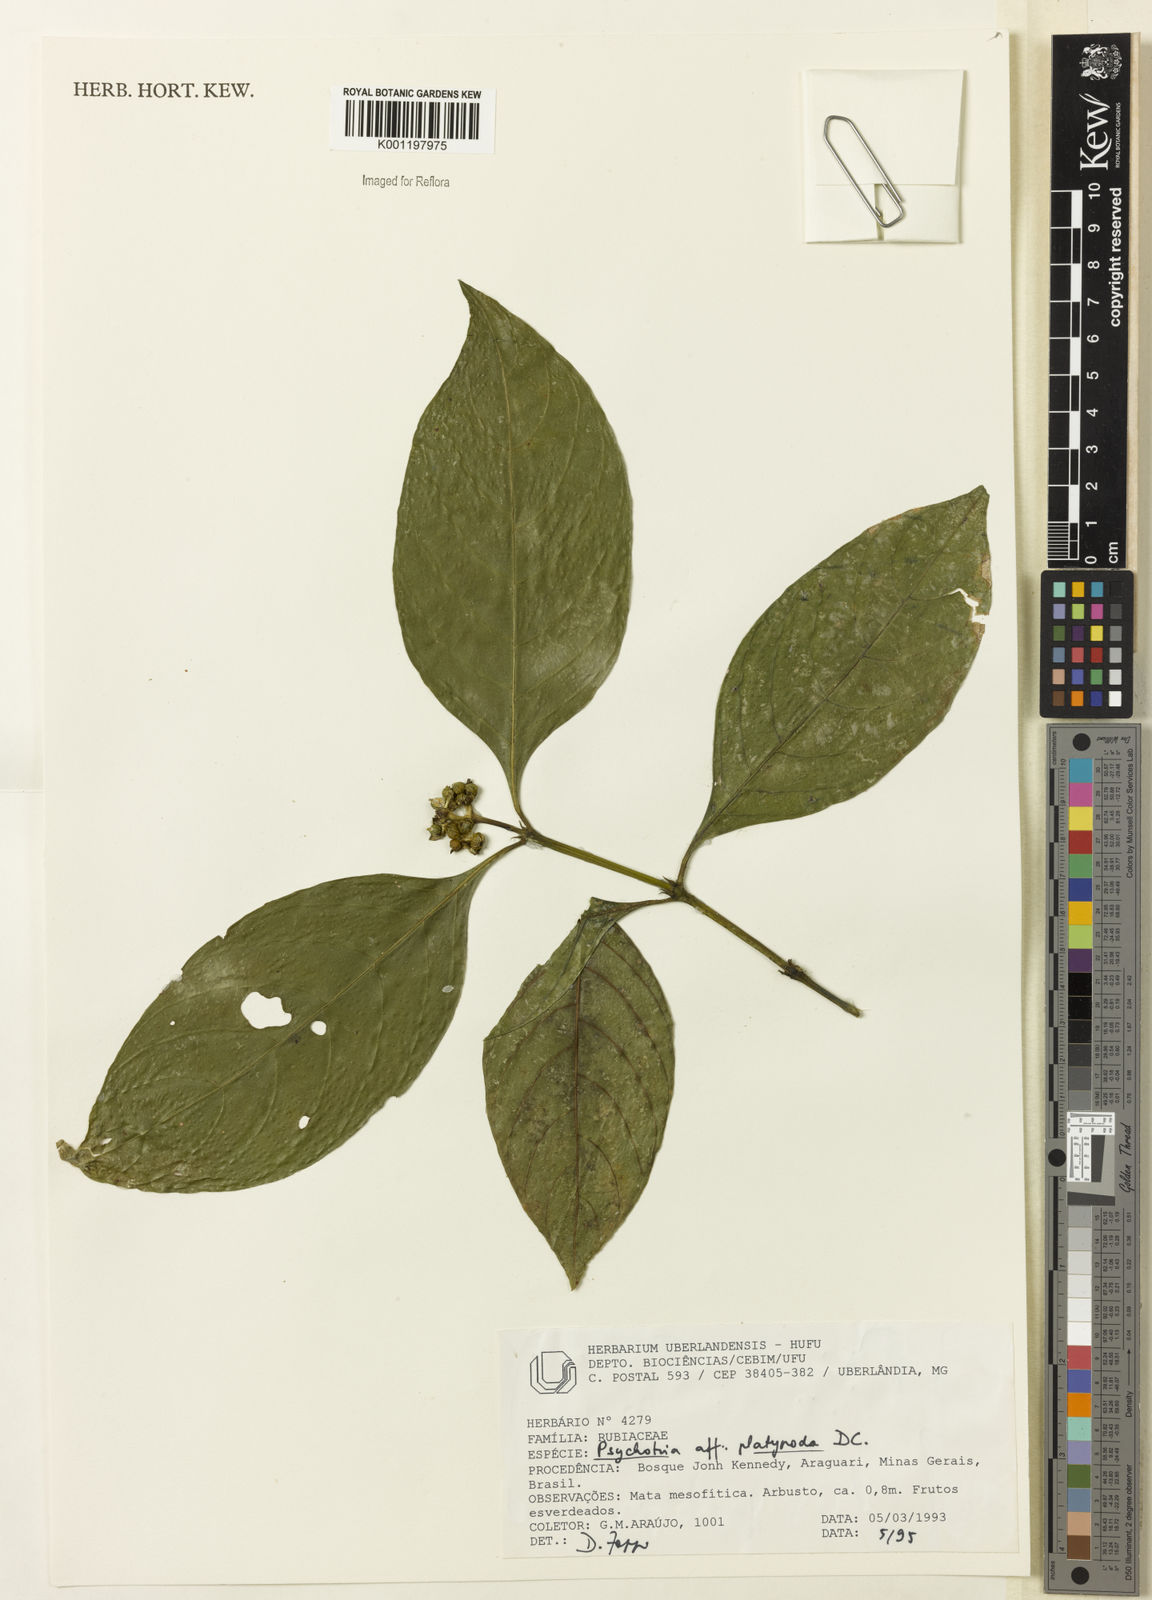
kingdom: Plantae
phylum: Tracheophyta
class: Magnoliopsida
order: Gentianales
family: Rubiaceae
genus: Palicourea
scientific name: Palicourea dichotoma
